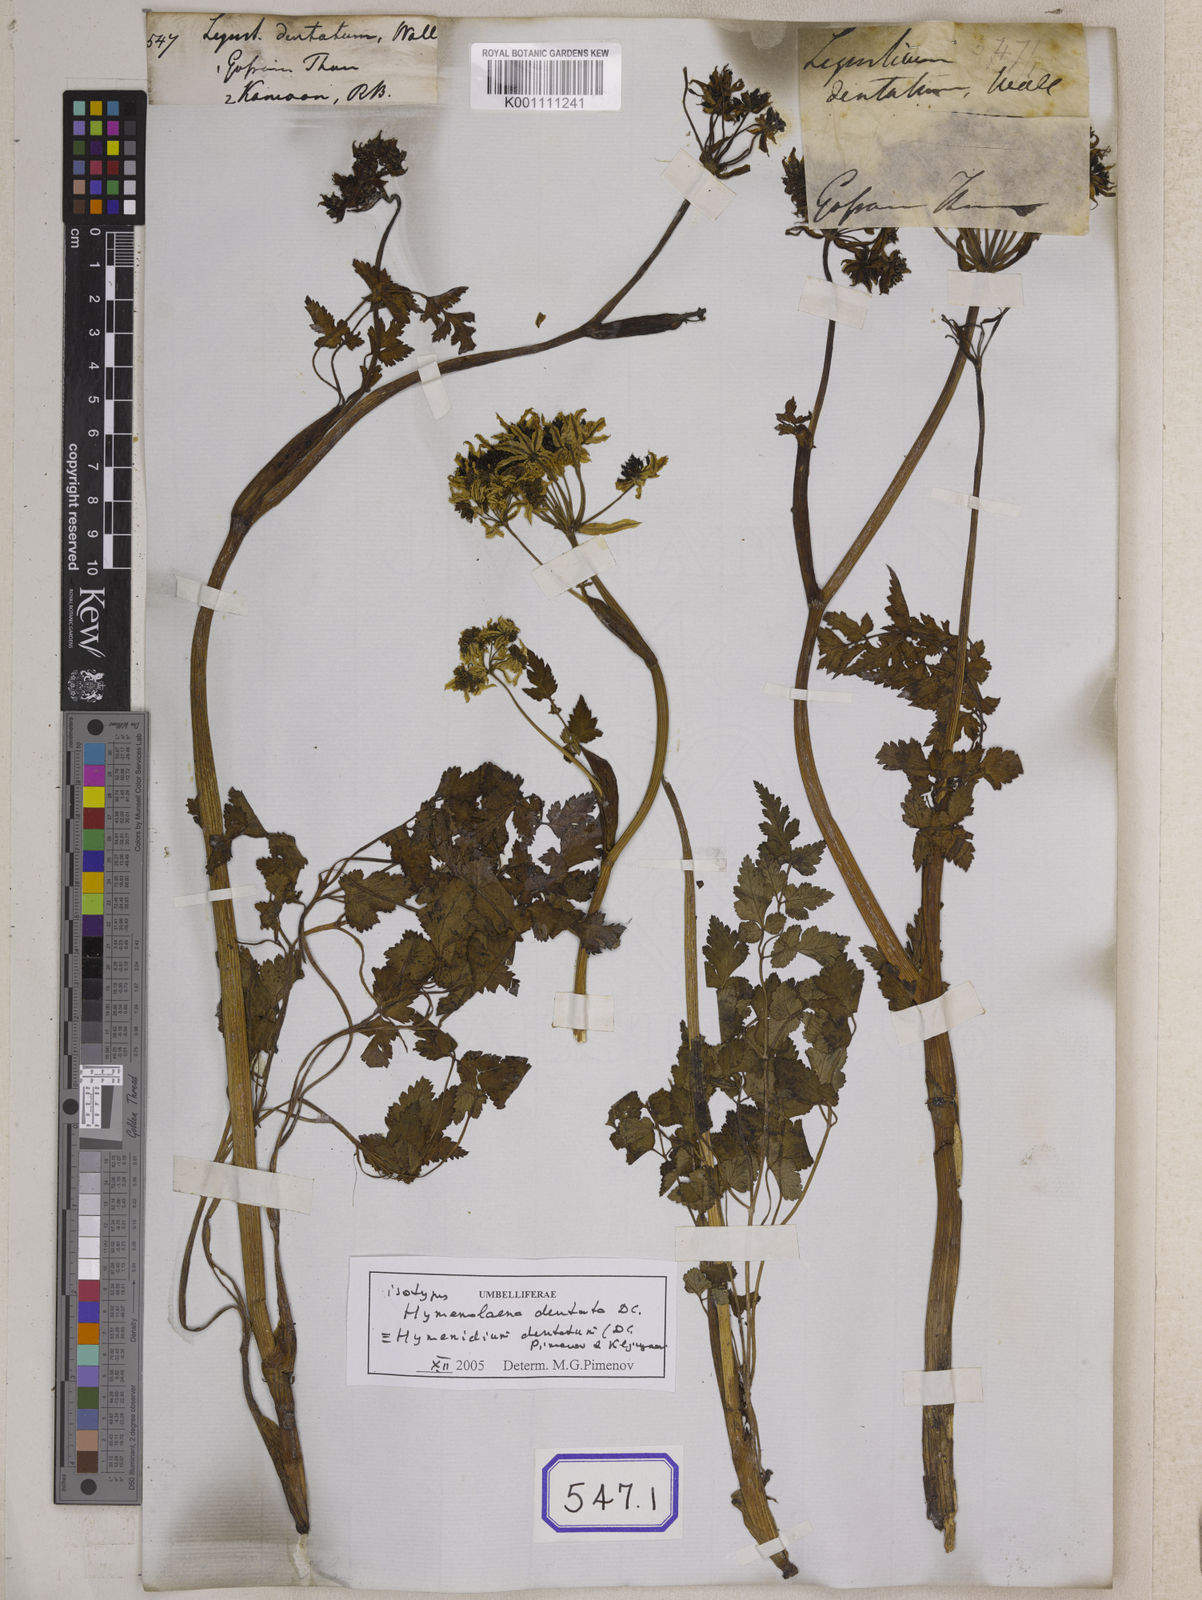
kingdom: Plantae
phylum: Tracheophyta
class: Magnoliopsida
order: Apiales
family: Apiaceae
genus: Hymenidium
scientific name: Hymenidium dentatum
